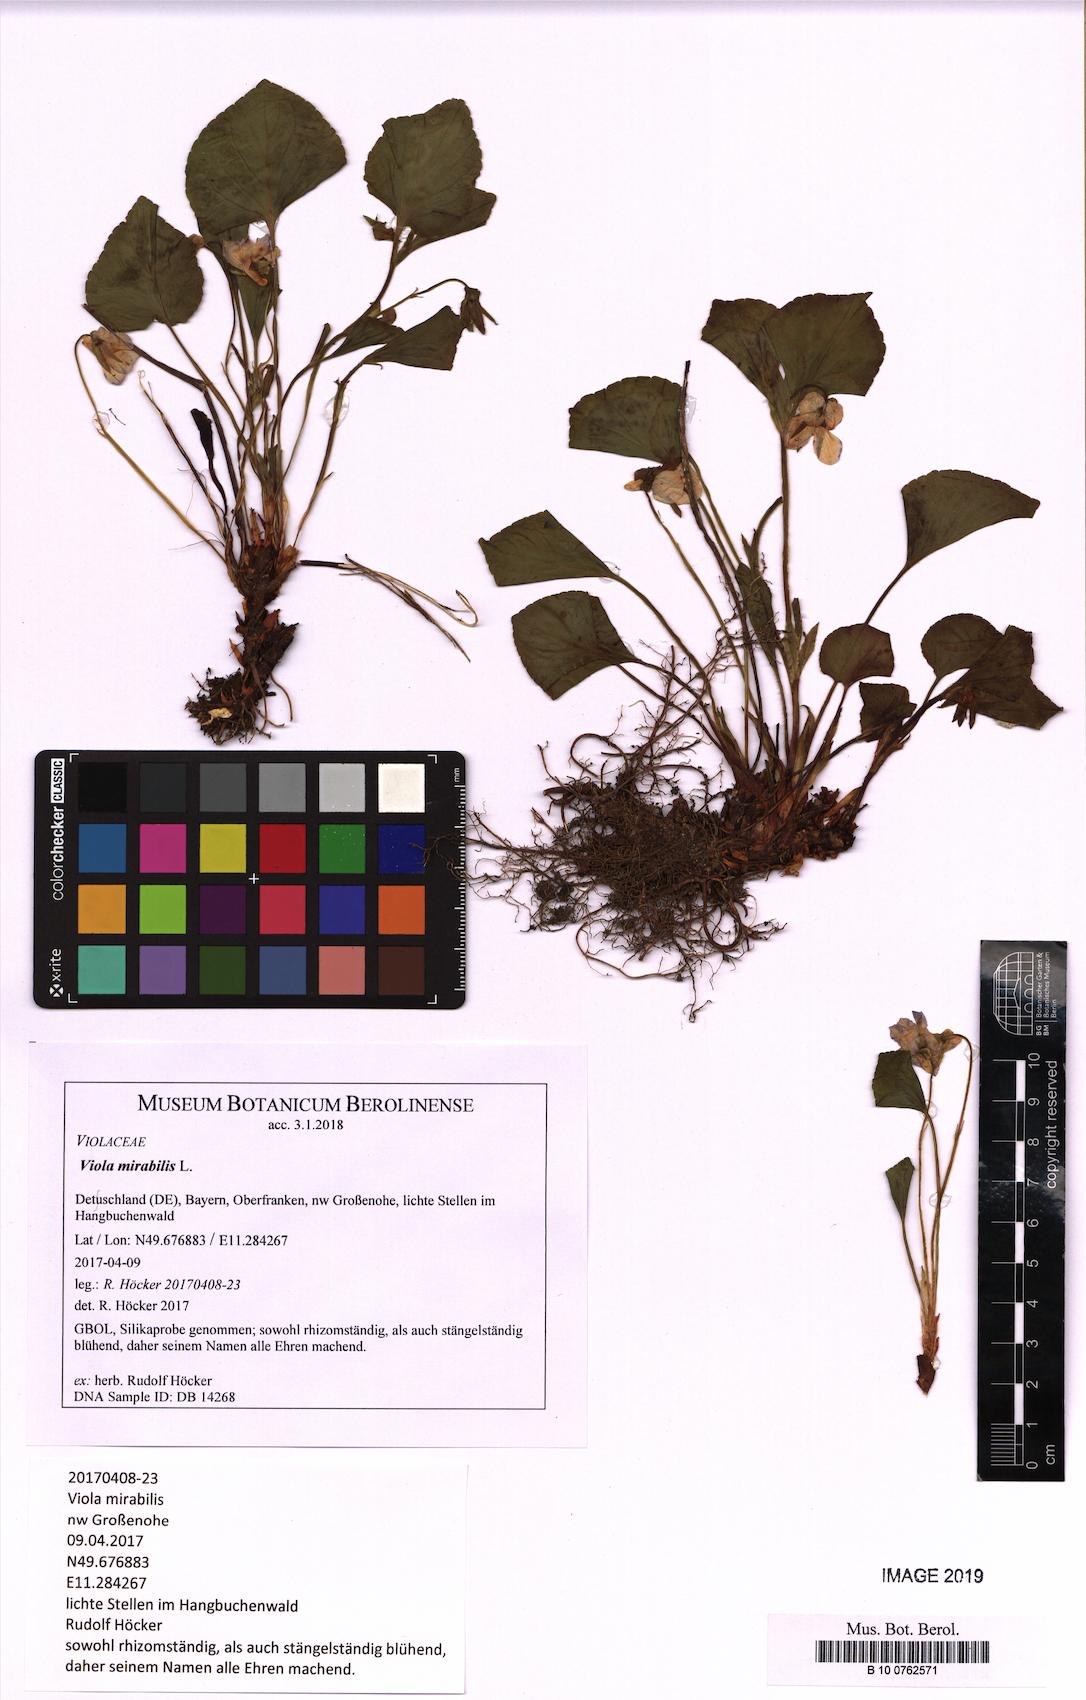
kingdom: Plantae
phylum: Tracheophyta
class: Magnoliopsida
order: Malpighiales
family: Violaceae
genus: Viola
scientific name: Viola mirabilis
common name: Wonder violet
